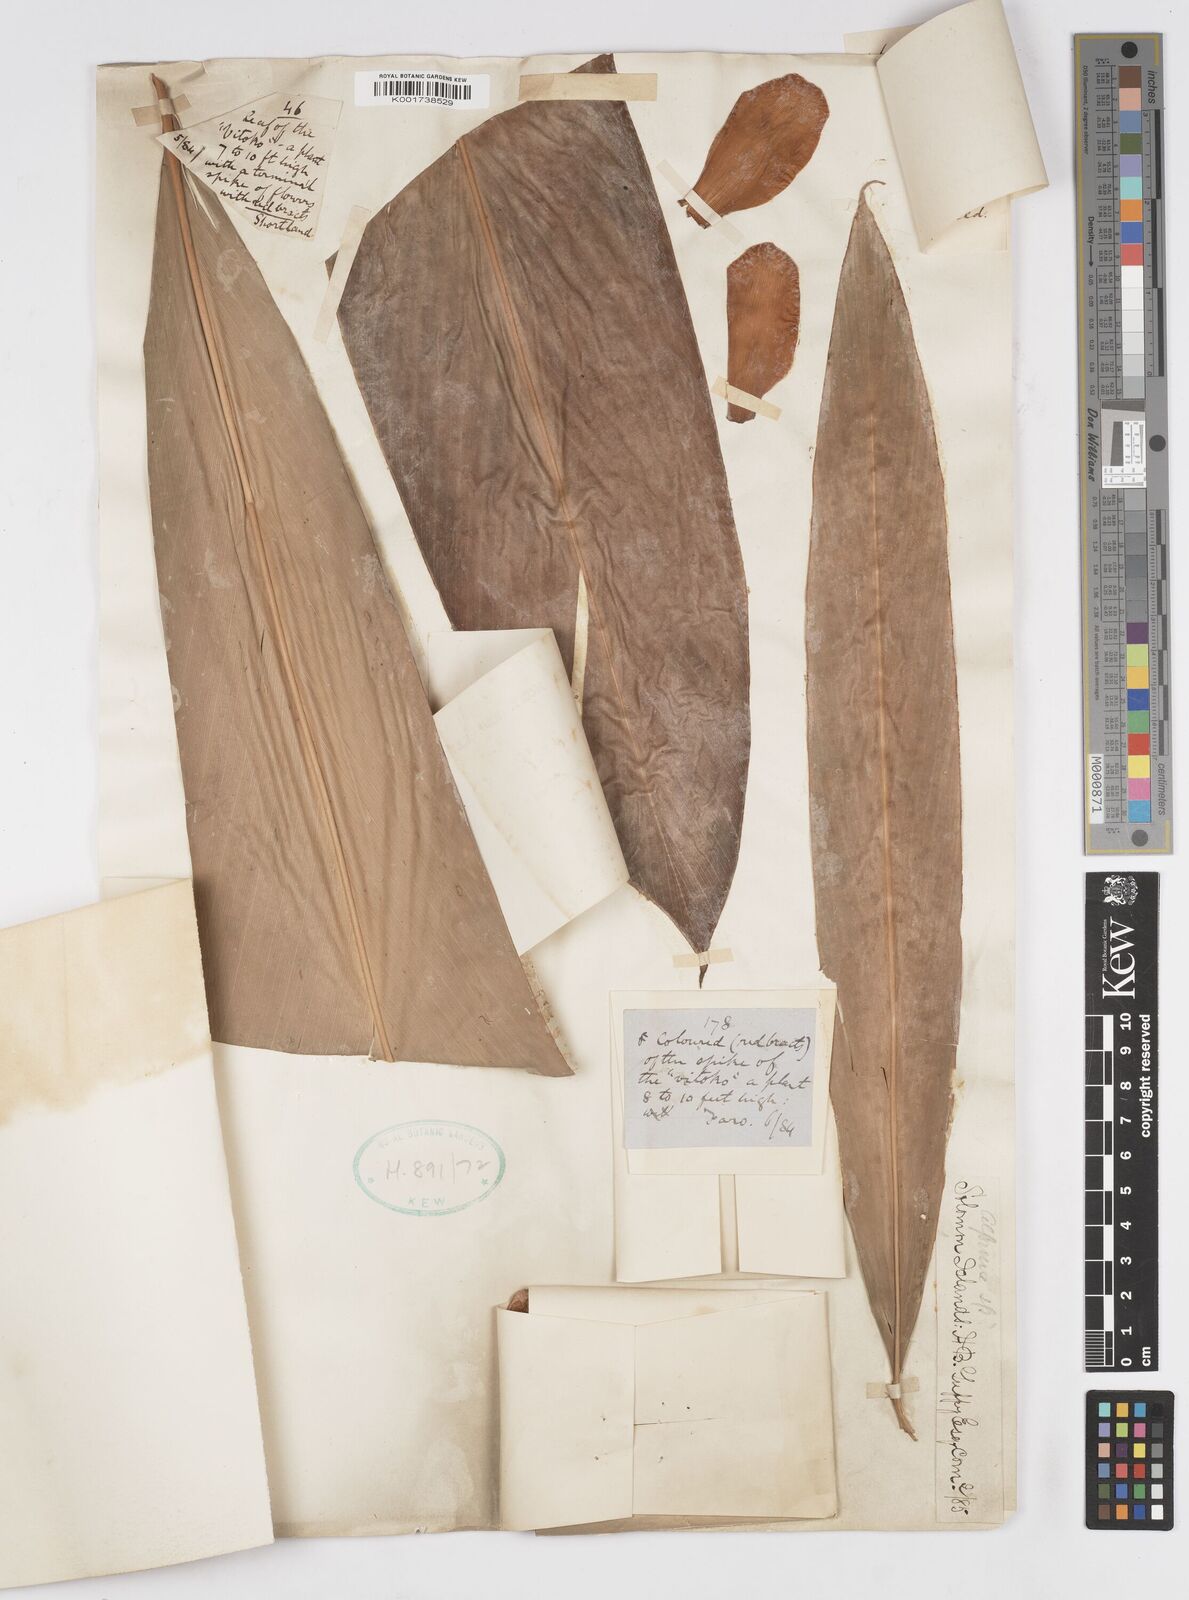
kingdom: Plantae
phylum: Tracheophyta
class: Liliopsida
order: Zingiberales
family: Zingiberaceae
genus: Alpinia
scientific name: Alpinia purpurata
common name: Red ginger
